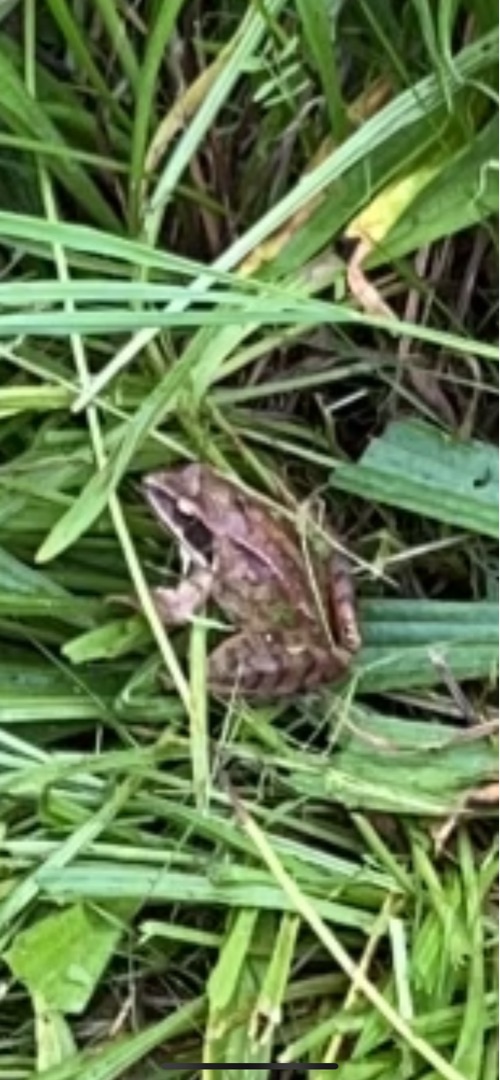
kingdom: Animalia
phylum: Chordata
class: Amphibia
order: Anura
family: Ranidae
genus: Rana
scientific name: Rana arvalis
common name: Spidssnudet frø
